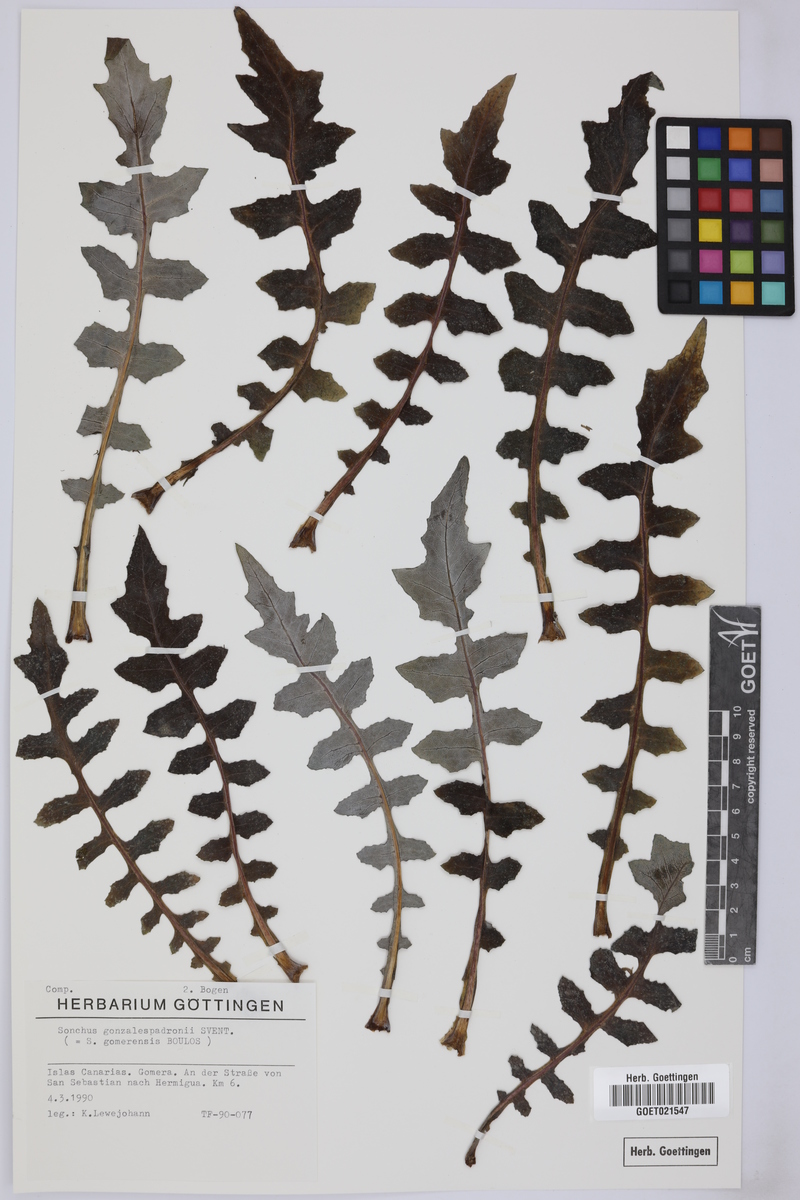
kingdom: Plantae
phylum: Tracheophyta
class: Magnoliopsida
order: Asterales
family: Asteraceae
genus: Sonchus
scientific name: Sonchus gomerensis
